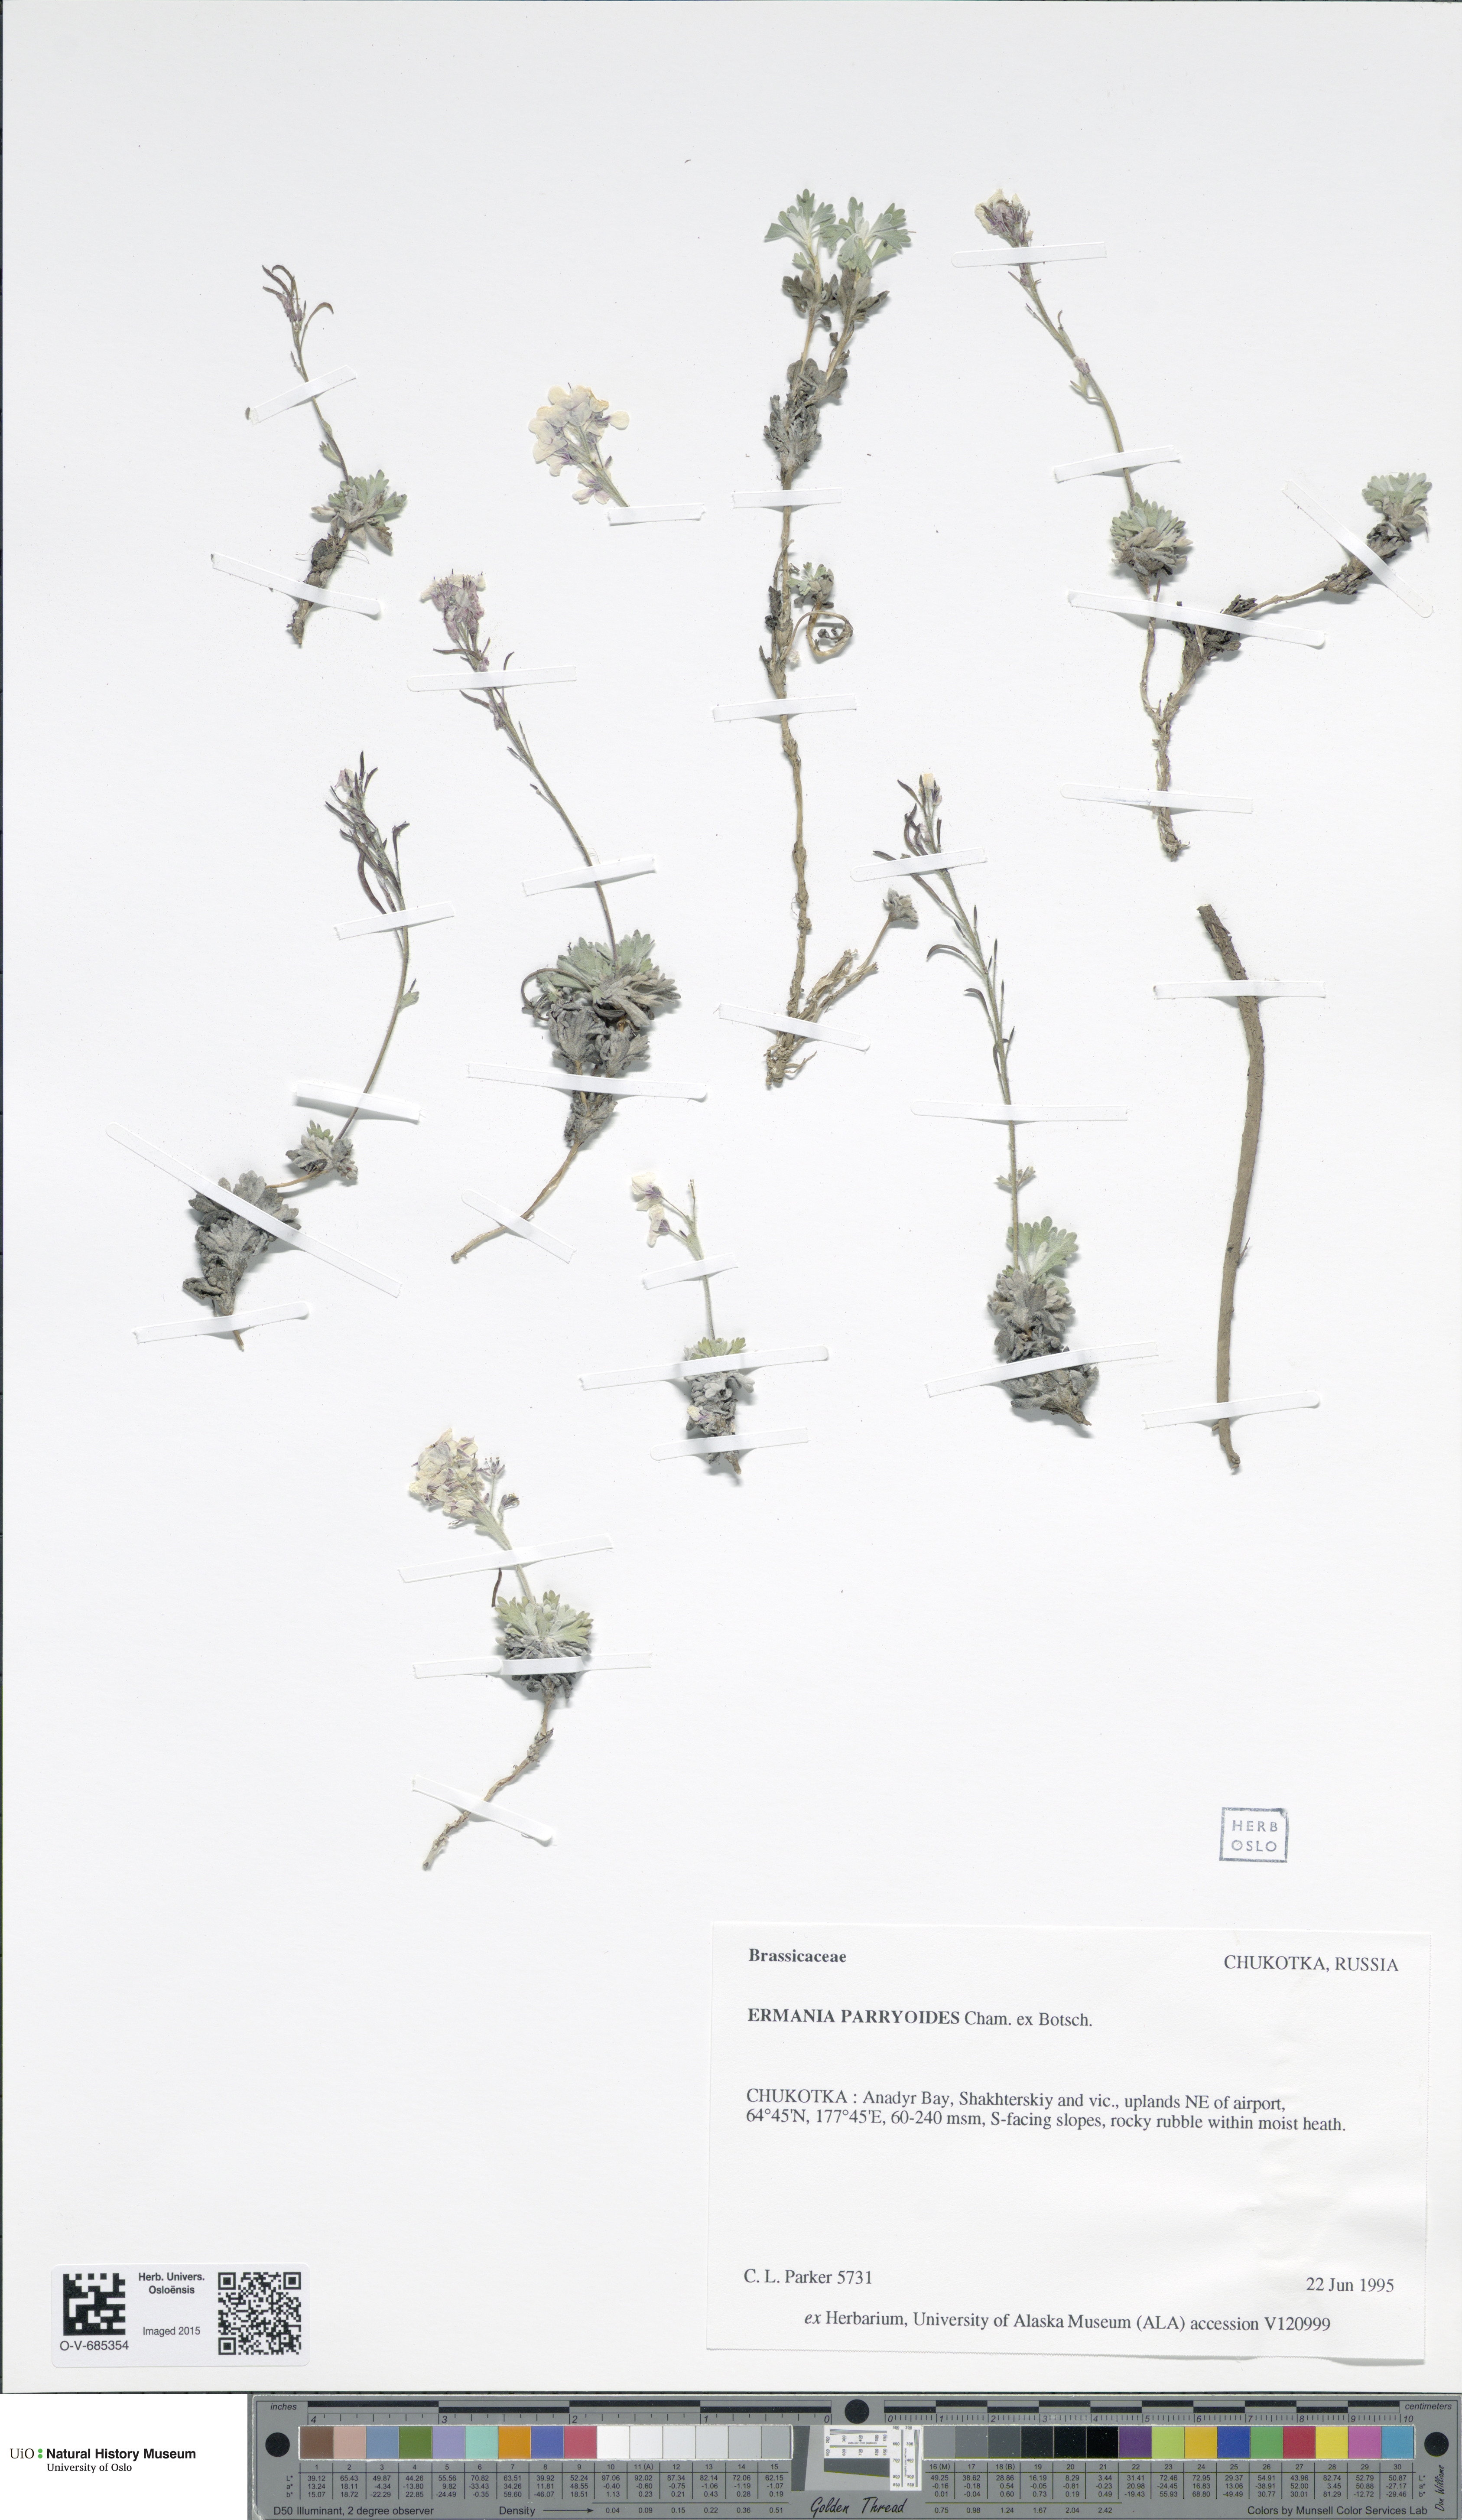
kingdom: Plantae
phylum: Tracheophyta
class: Magnoliopsida
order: Brassicales
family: Brassicaceae
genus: Smelowskia
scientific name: Smelowskia parryoides
